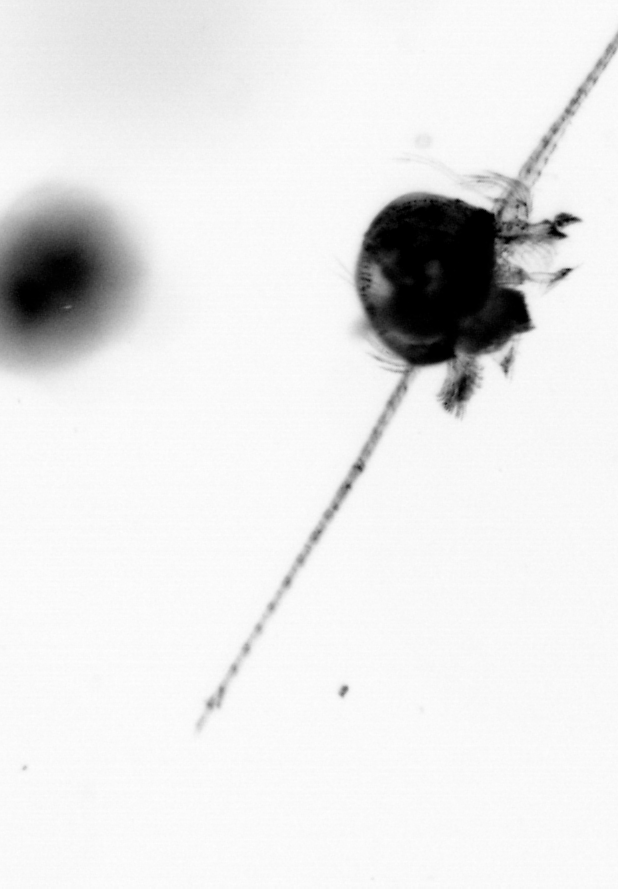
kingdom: Animalia
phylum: Arthropoda
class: Copepoda
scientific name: Copepoda
